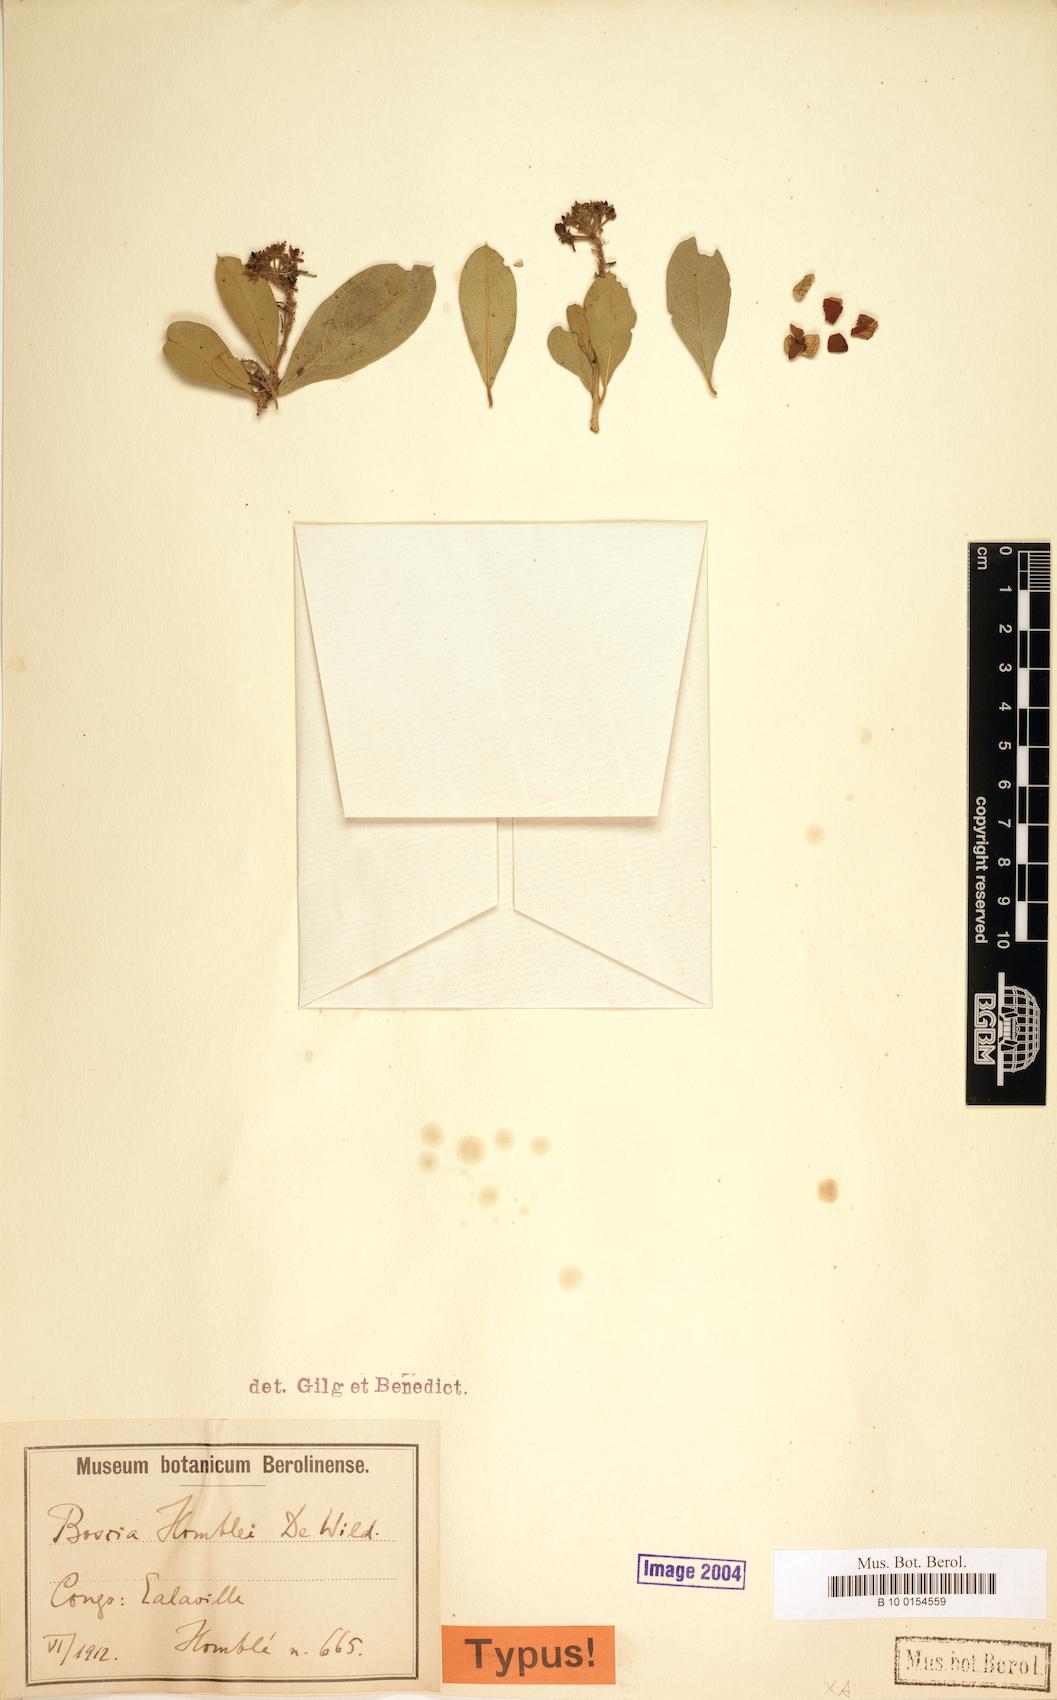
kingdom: Plantae
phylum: Tracheophyta
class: Magnoliopsida
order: Brassicales
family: Capparaceae
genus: Boscia
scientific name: Boscia angustifolia
